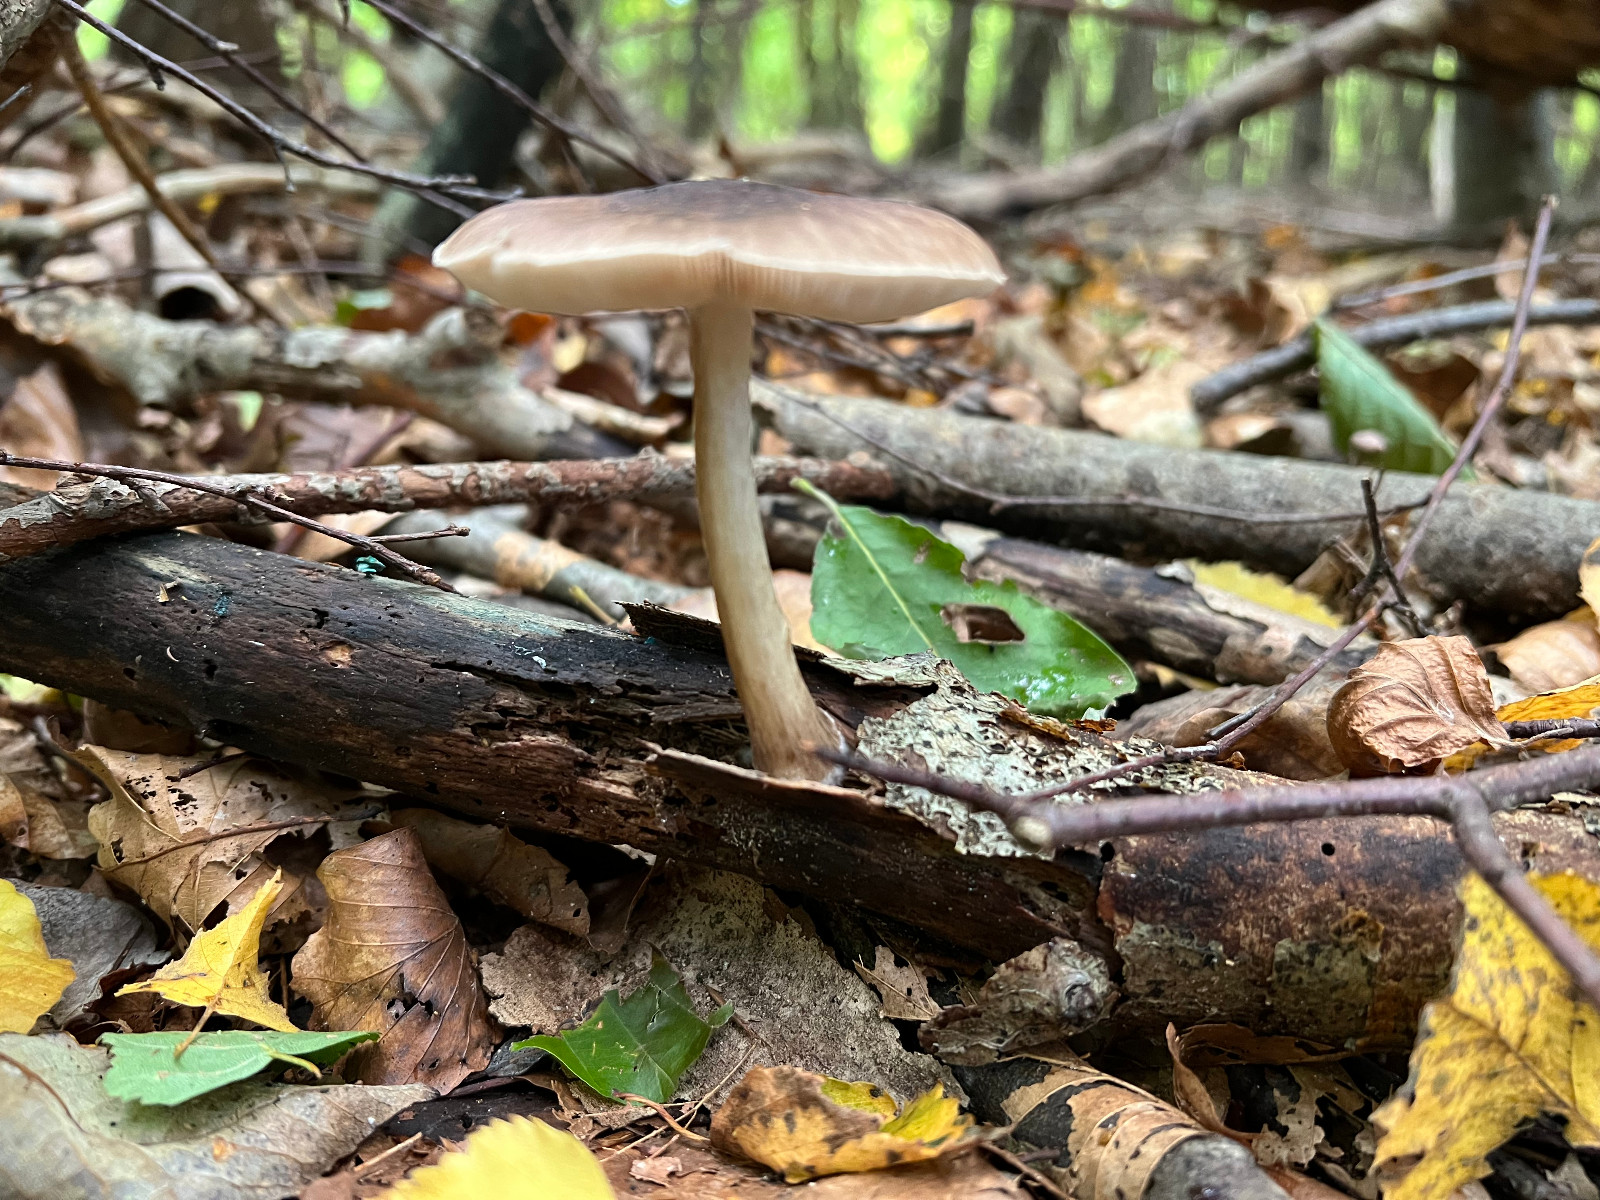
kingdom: Fungi
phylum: Basidiomycota
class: Agaricomycetes
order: Agaricales
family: Pluteaceae
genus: Pluteus
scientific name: Pluteus cervinus
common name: sodfarvet skærmhat
